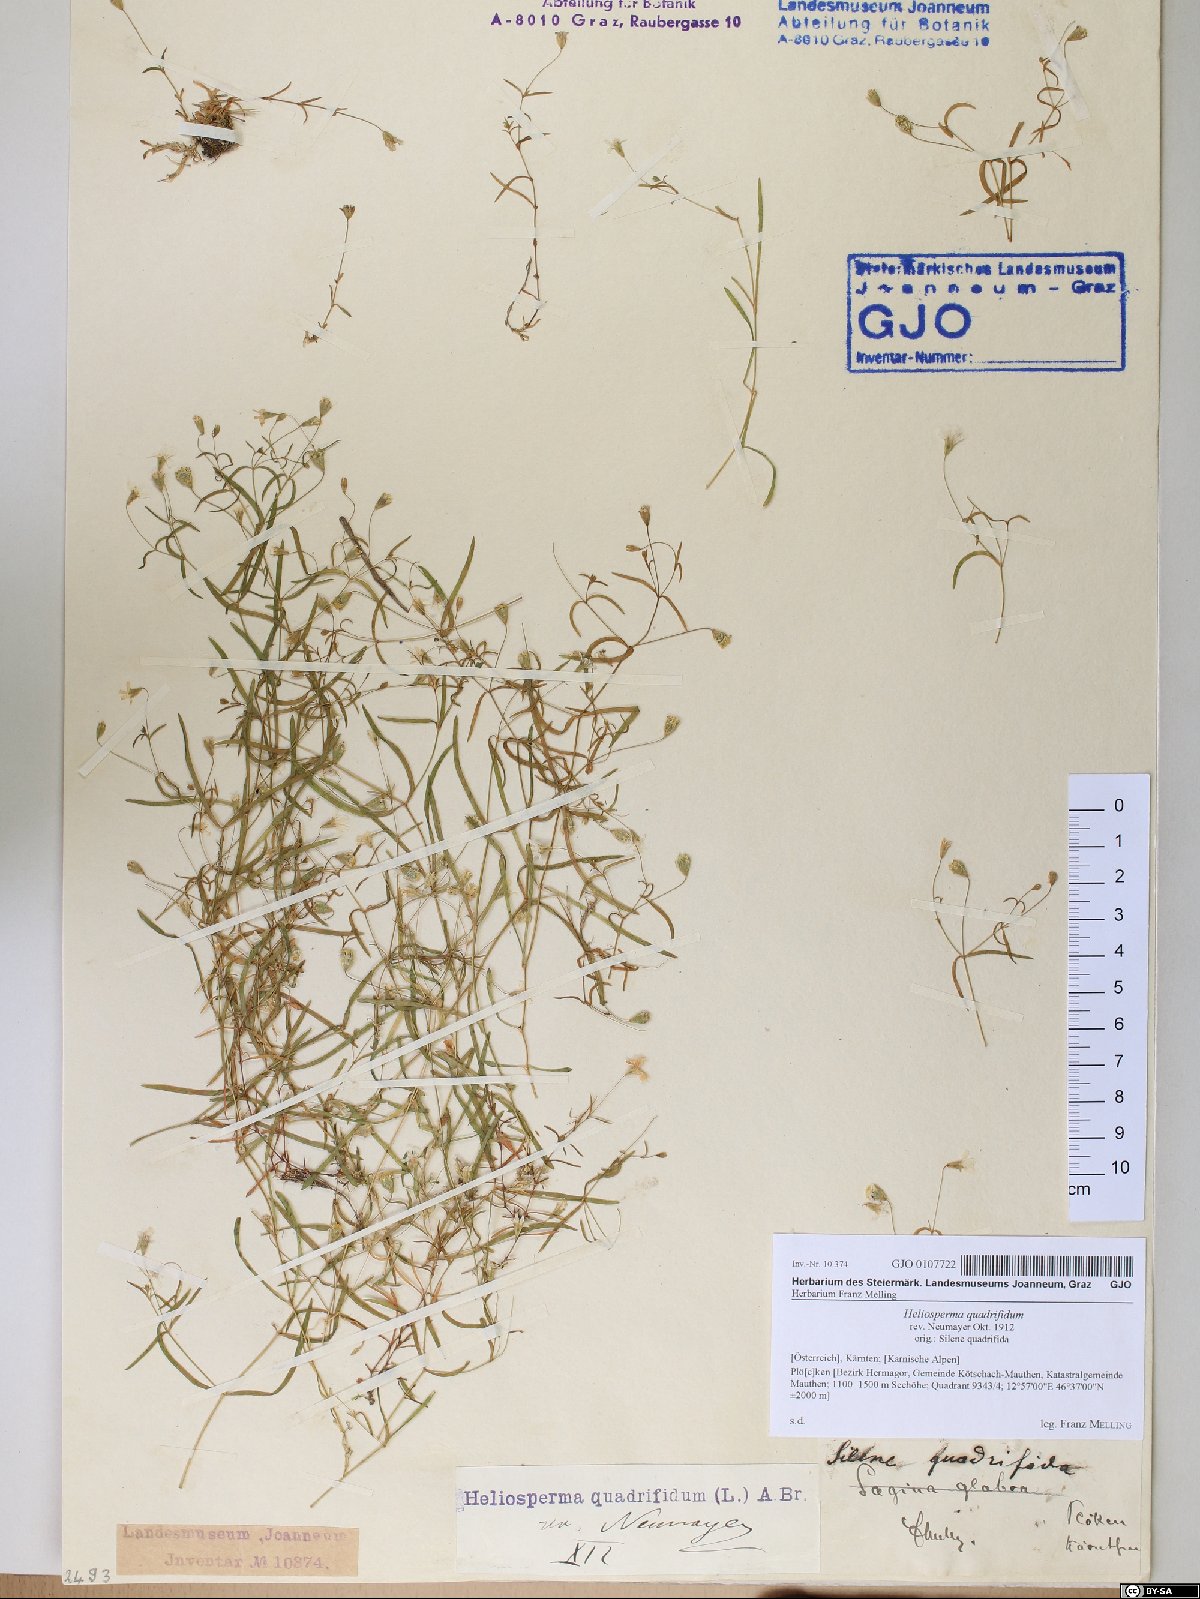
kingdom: Plantae
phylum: Tracheophyta
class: Magnoliopsida
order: Caryophyllales
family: Caryophyllaceae
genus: Heliosperma
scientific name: Heliosperma alpestre
